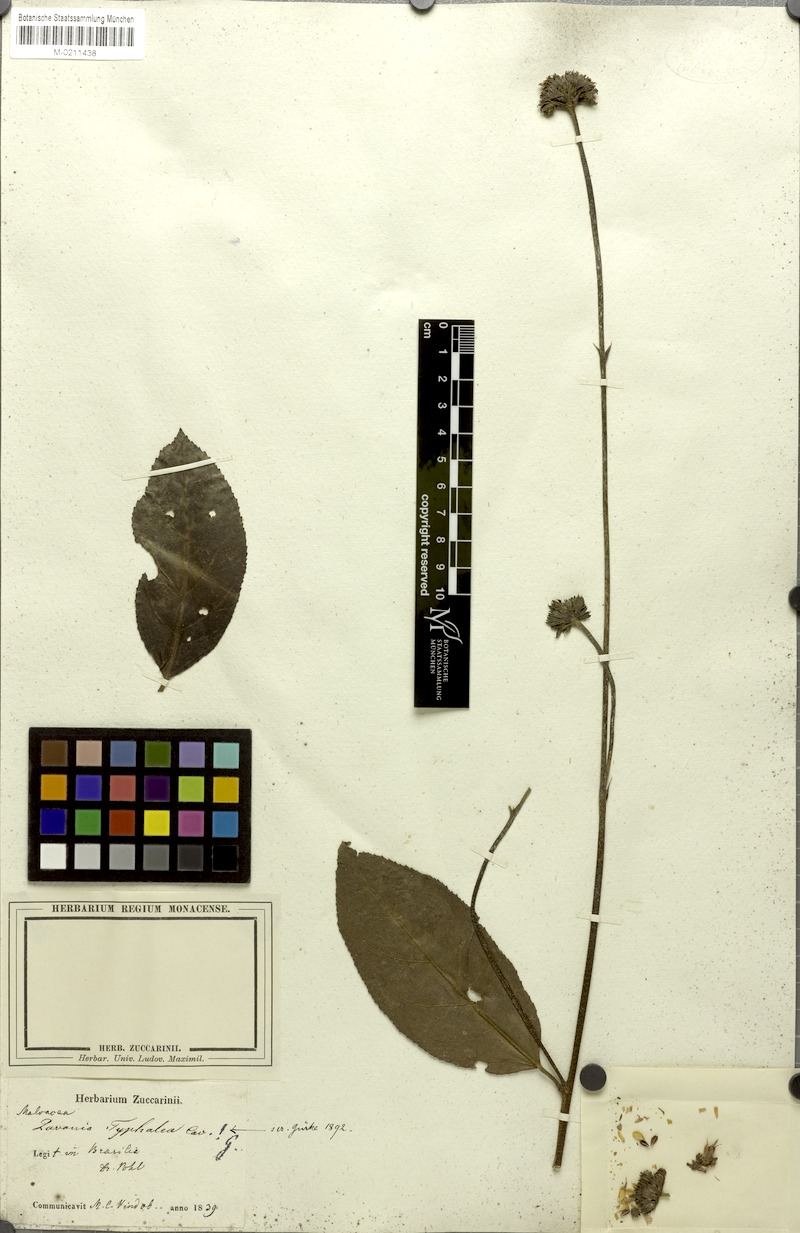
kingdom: Plantae
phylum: Tracheophyta
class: Magnoliopsida
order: Malvales
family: Malvaceae
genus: Pavonia
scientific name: Pavonia fruticosa
